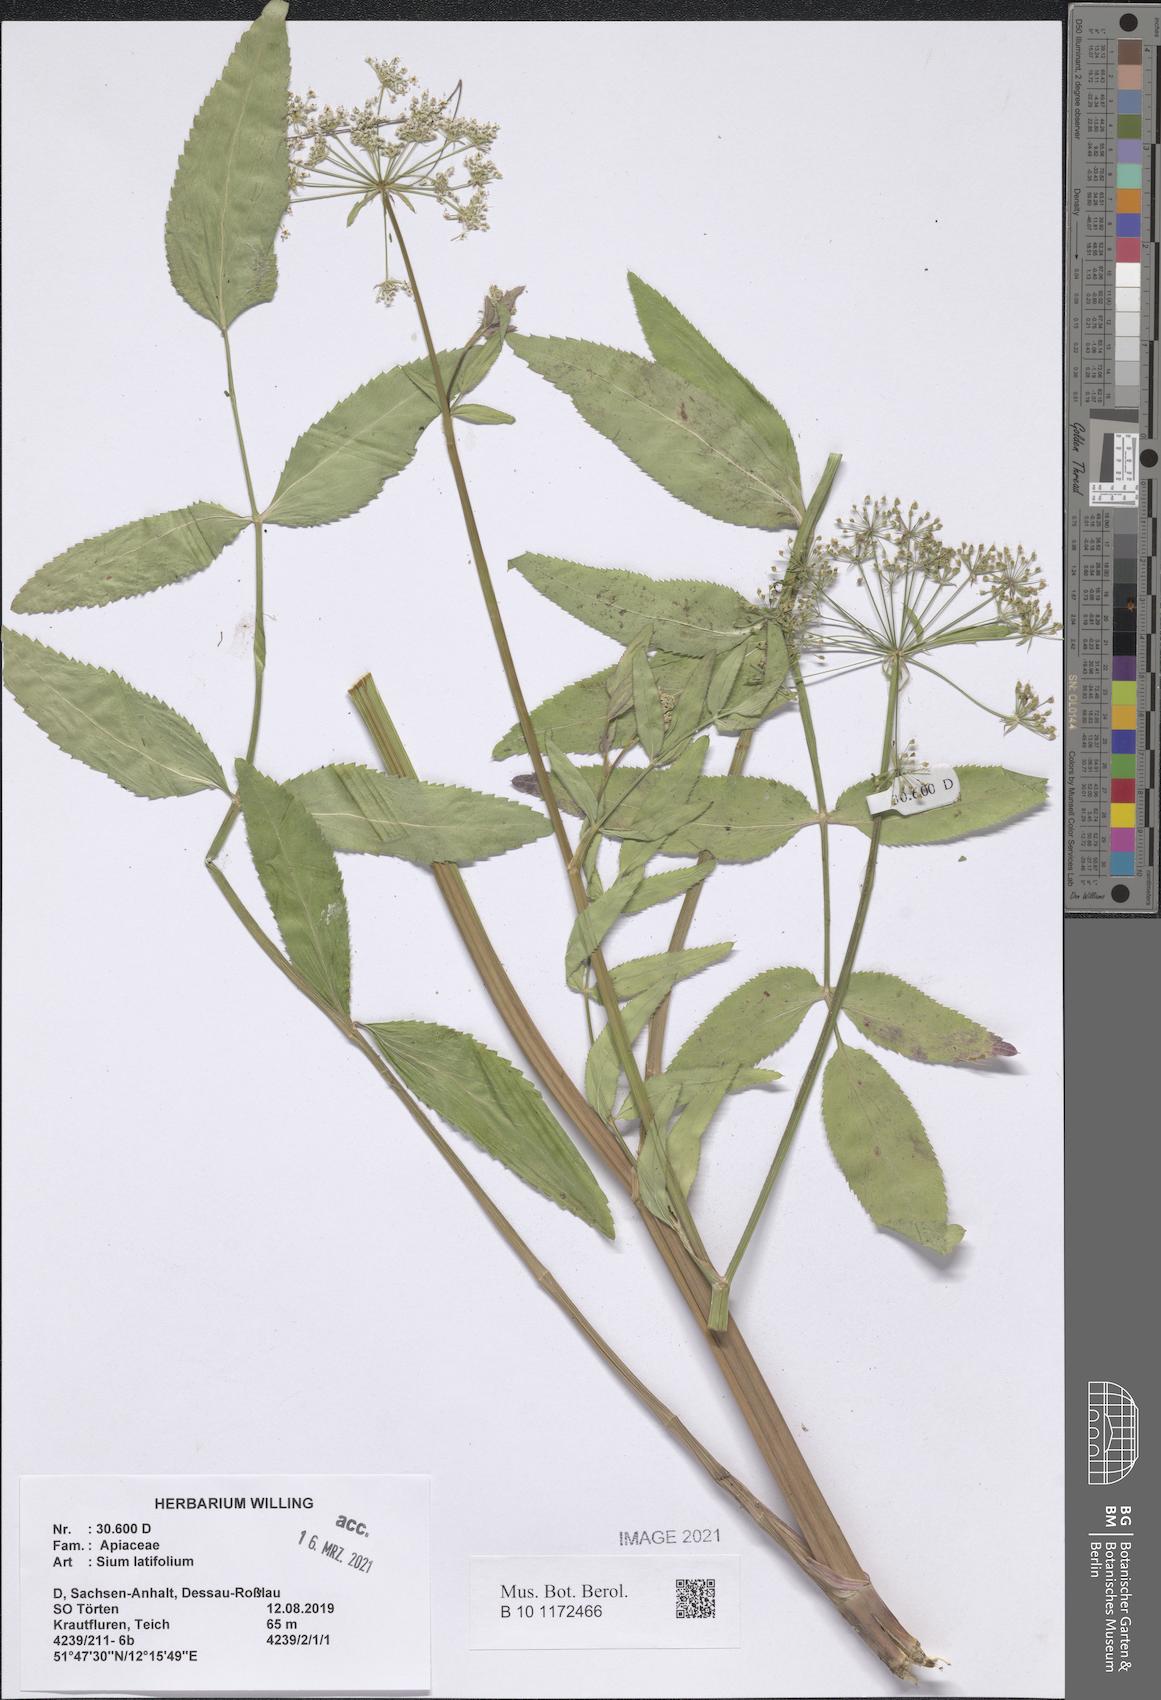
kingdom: Plantae
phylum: Tracheophyta
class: Magnoliopsida
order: Apiales
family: Apiaceae
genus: Sium
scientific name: Sium latifolium
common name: Greater water-parsnip
